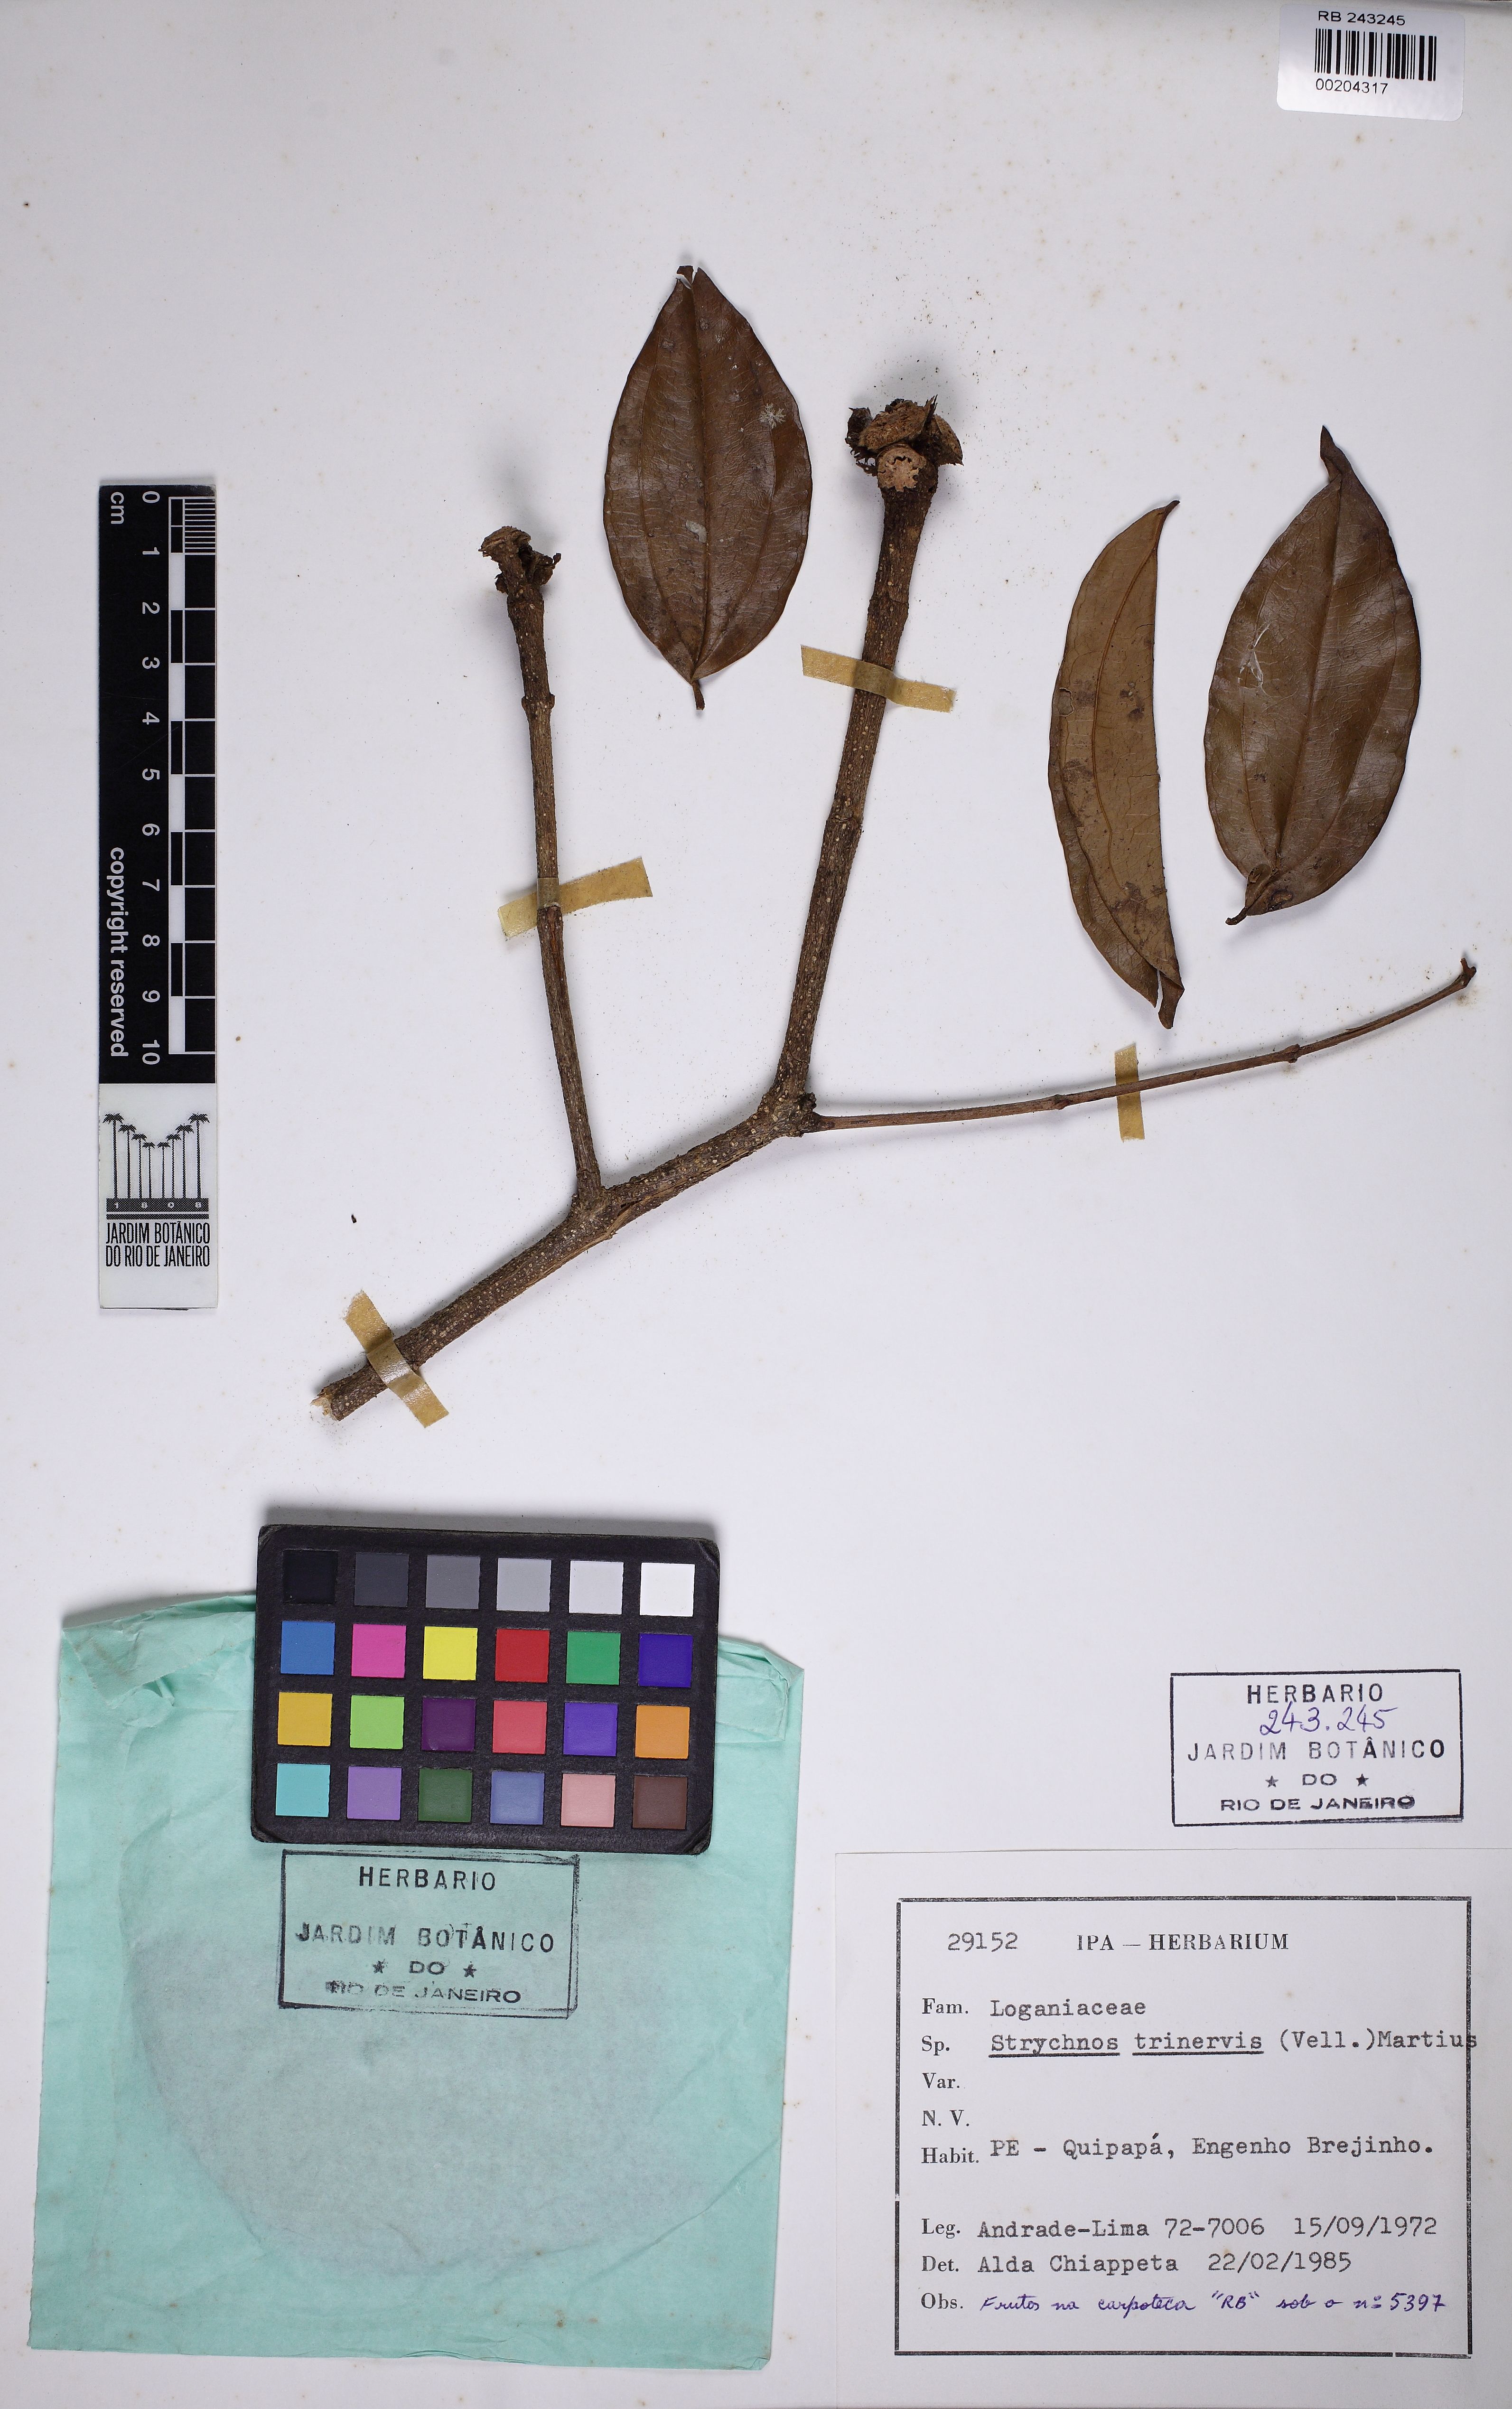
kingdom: Plantae
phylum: Tracheophyta
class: Magnoliopsida
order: Gentianales
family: Loganiaceae
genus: Strychnos
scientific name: Strychnos trinervis
